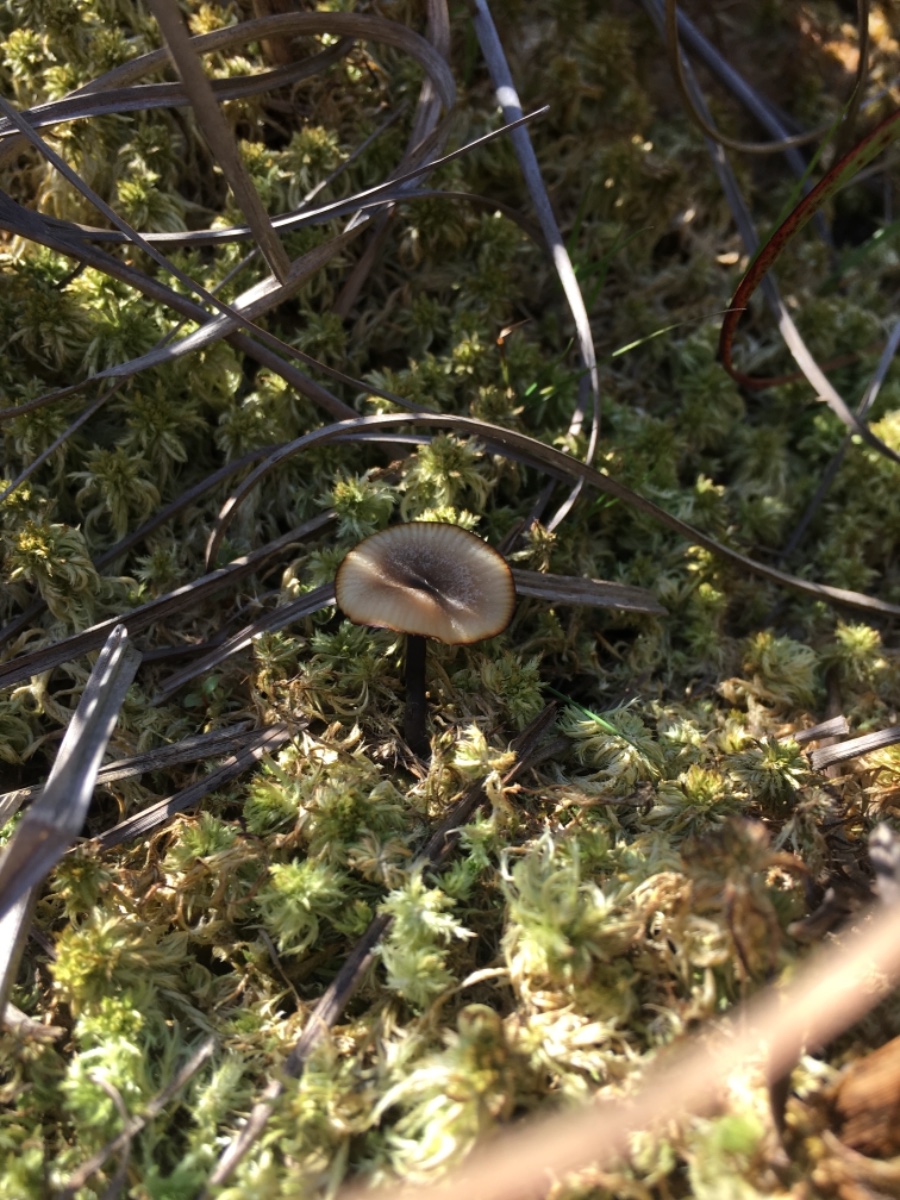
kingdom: Fungi
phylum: Basidiomycota
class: Agaricomycetes
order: Agaricales
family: Lyophyllaceae
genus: Sphagnurus
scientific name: Sphagnurus paluster
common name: tørvemos-gråblad
